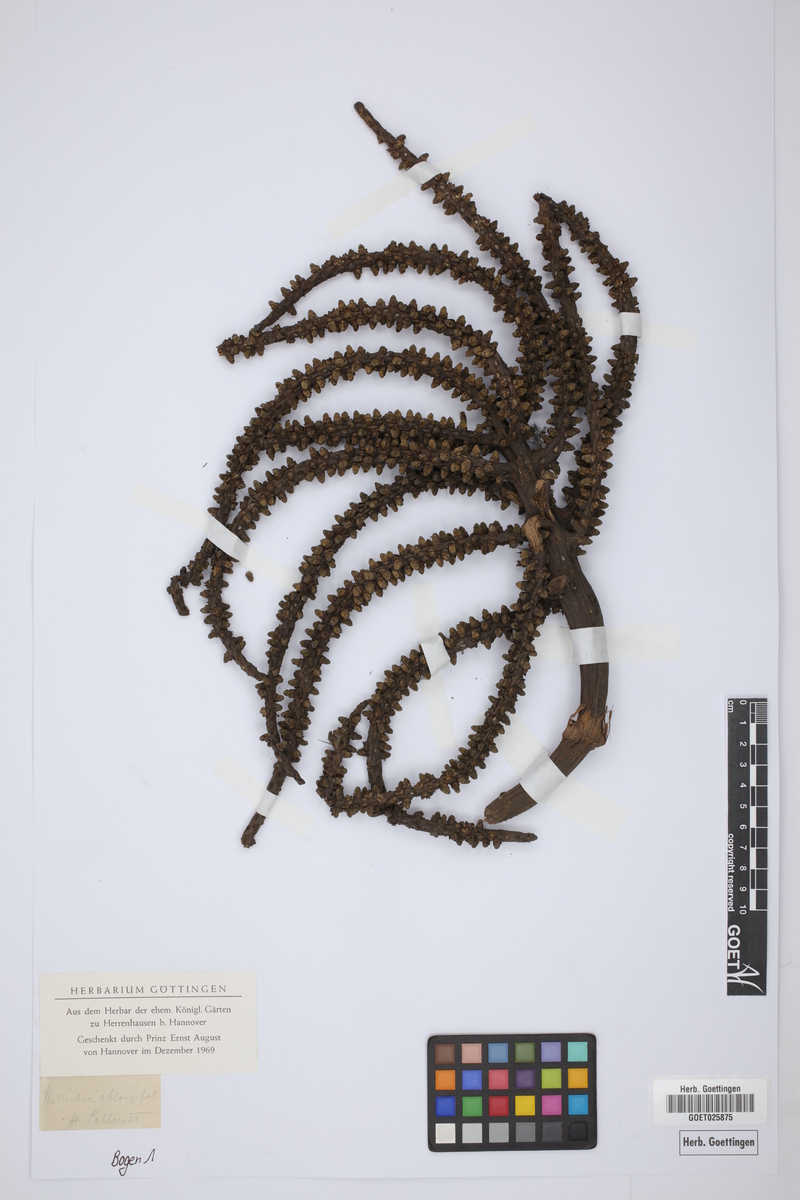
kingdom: Plantae
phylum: Tracheophyta
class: Liliopsida
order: Arecales
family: Arecaceae
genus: Wallichia
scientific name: Wallichia oblongifolia
